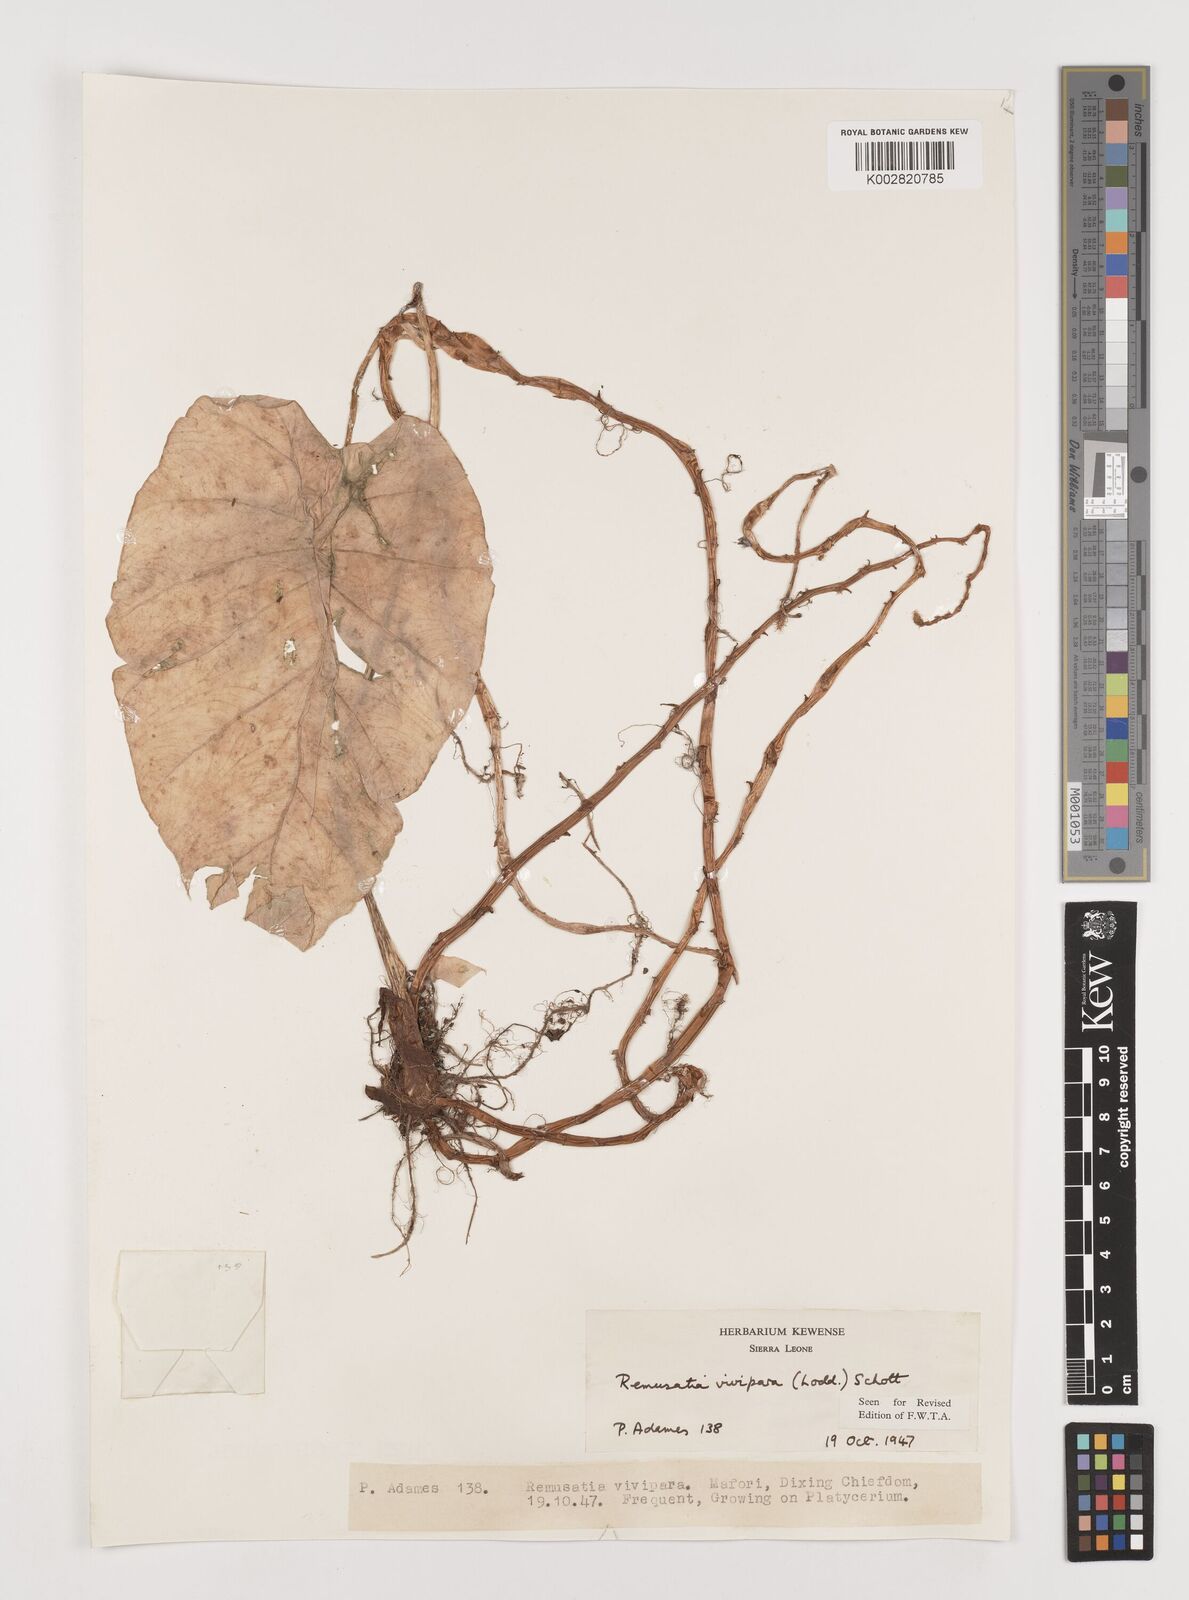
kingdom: Plantae
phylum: Tracheophyta
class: Liliopsida
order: Alismatales
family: Araceae
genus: Remusatia
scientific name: Remusatia vivipara
